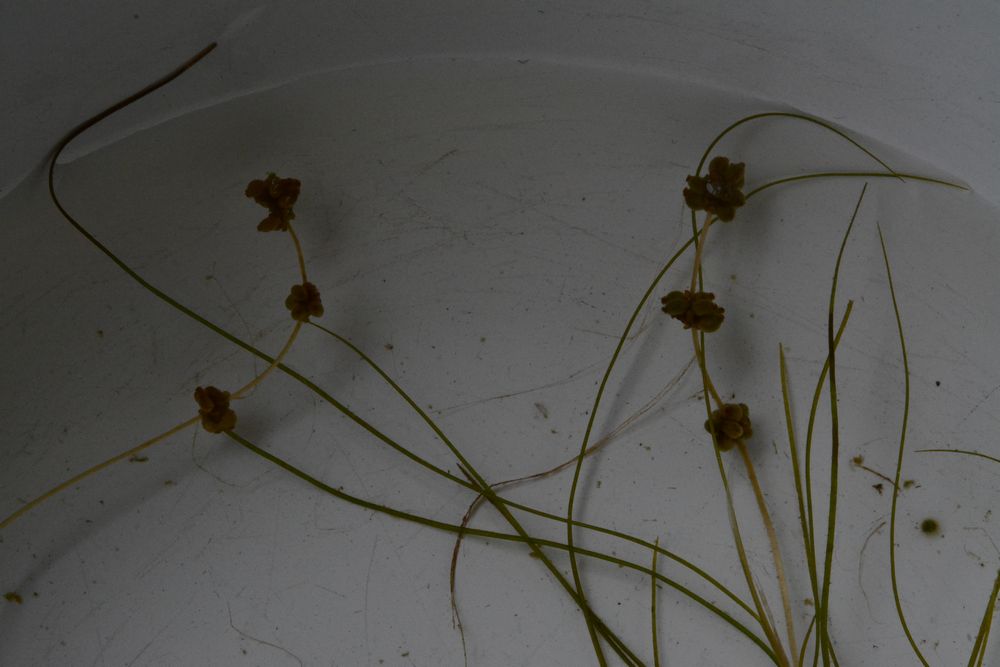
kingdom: Plantae
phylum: Tracheophyta
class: Liliopsida
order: Alismatales
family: Potamogetonaceae
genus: Stuckenia
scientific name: Stuckenia filiformis
